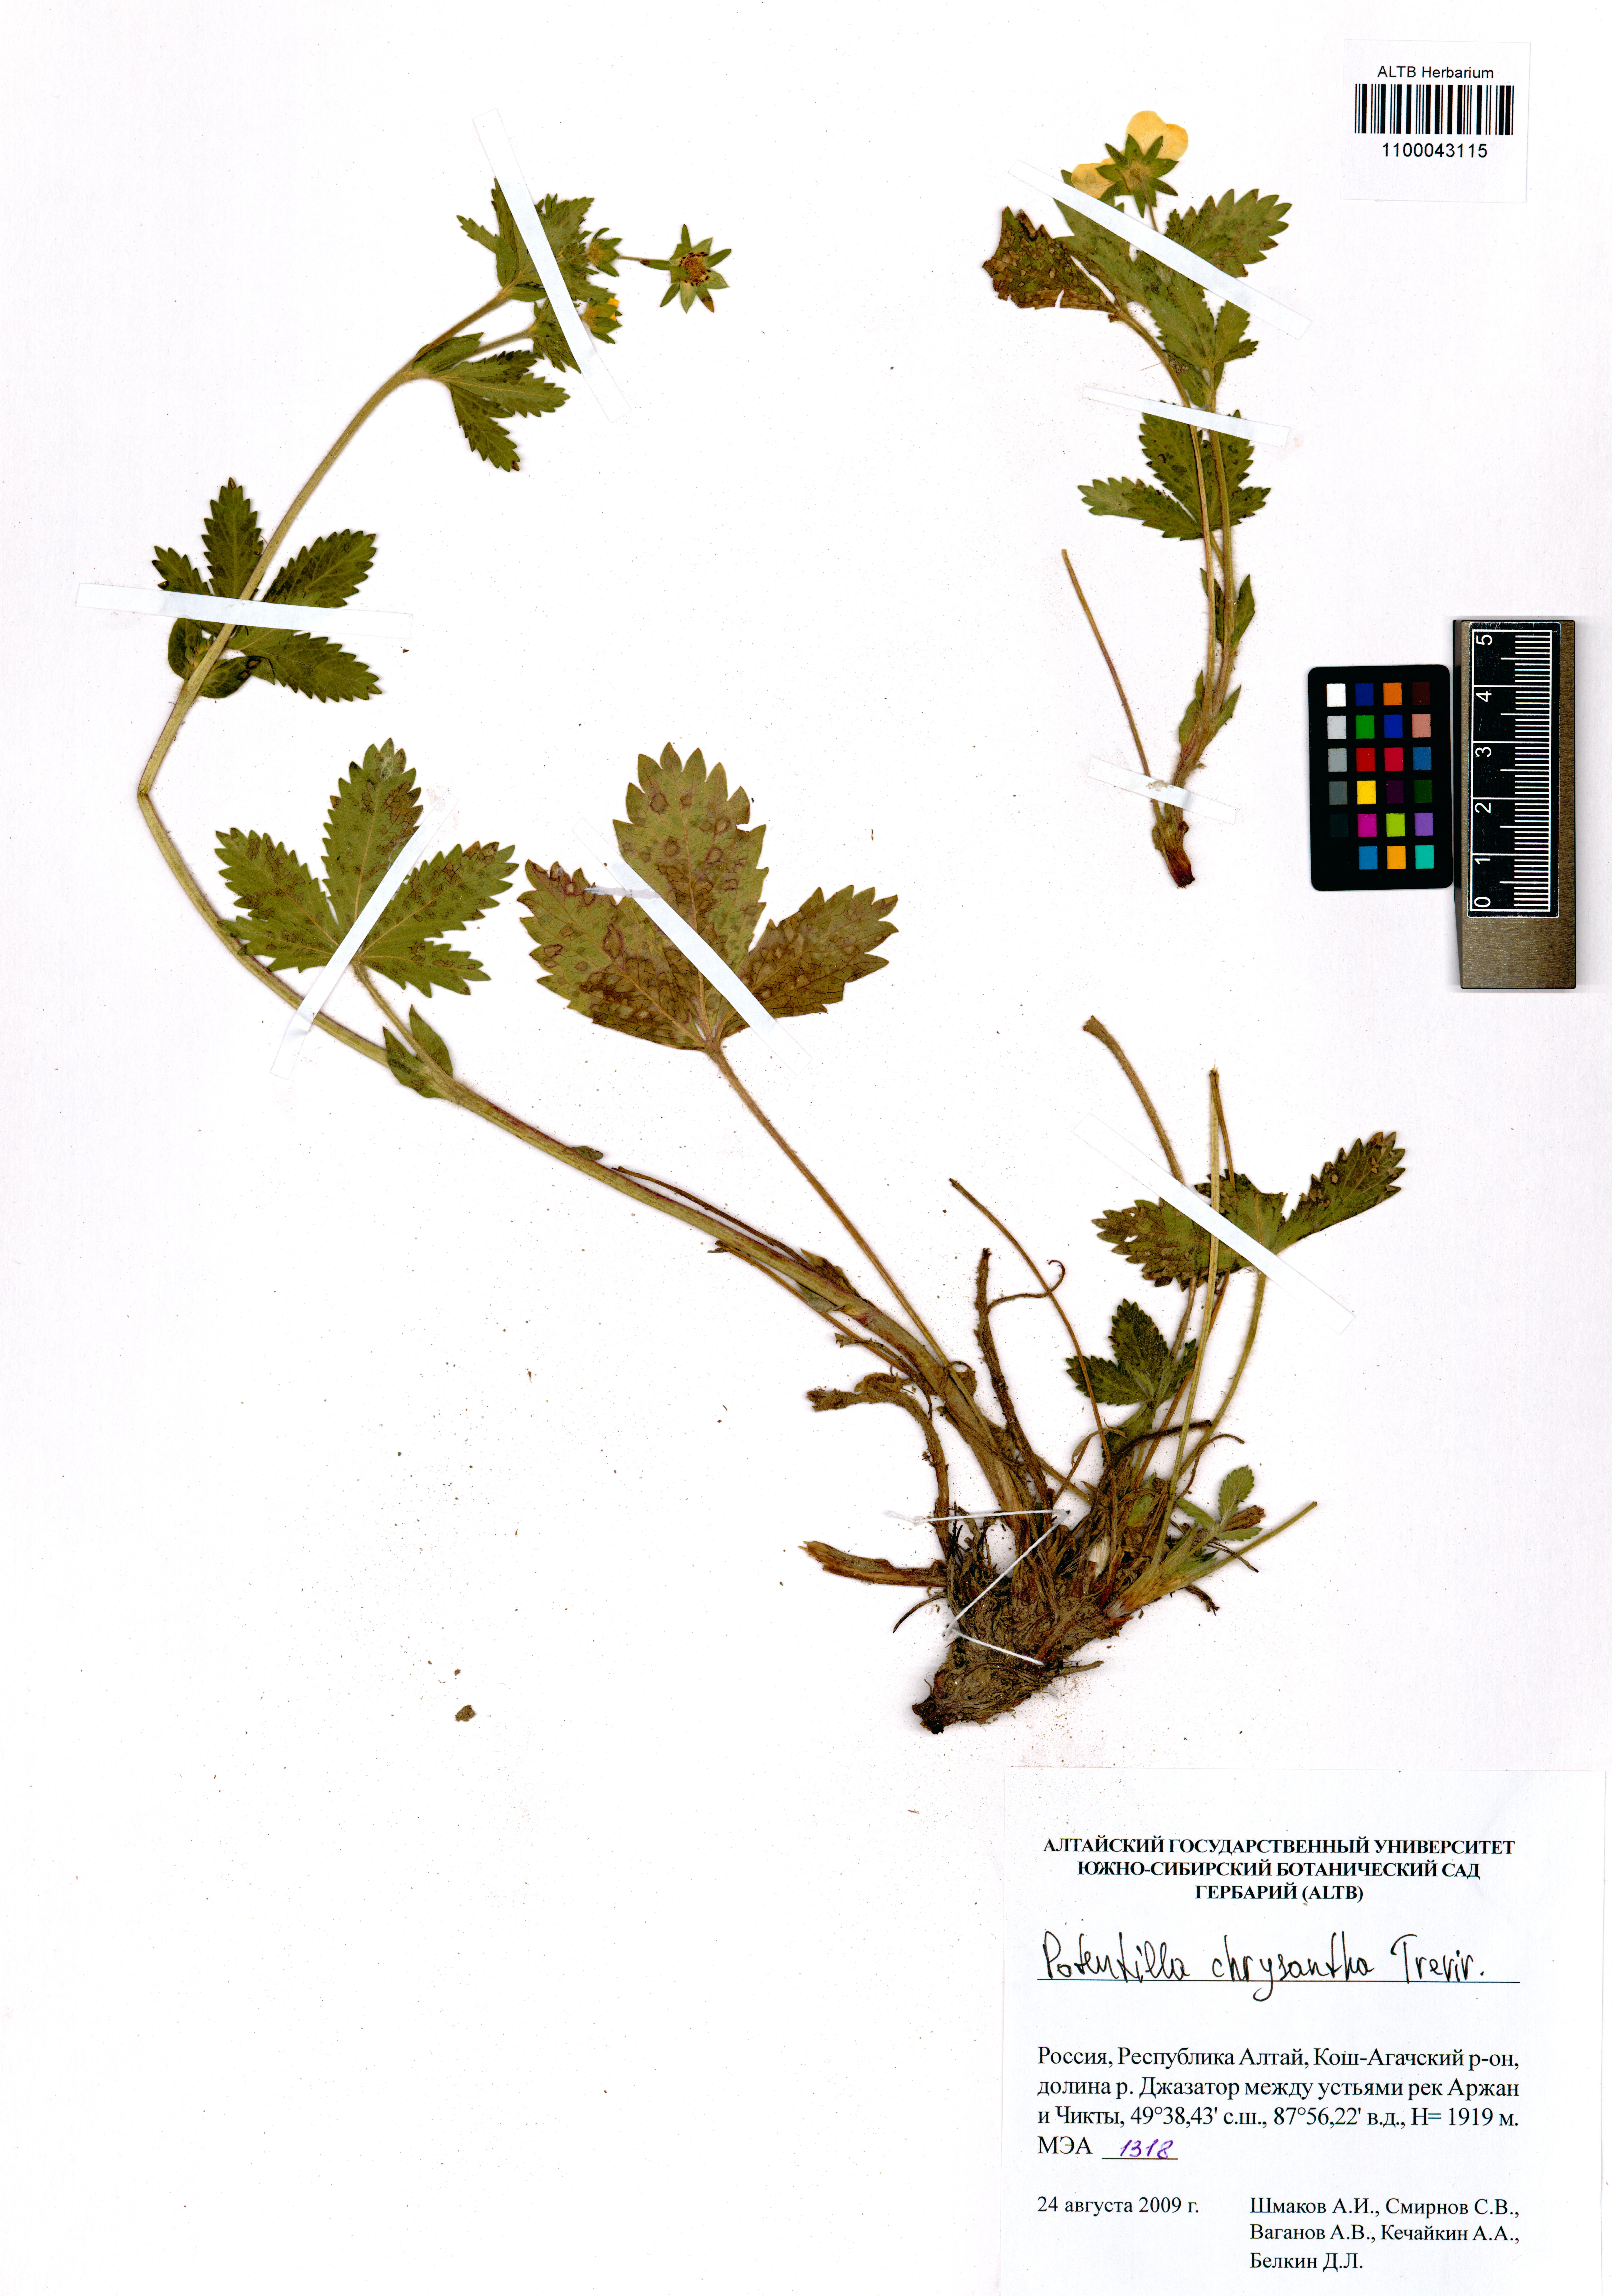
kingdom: Plantae
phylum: Tracheophyta
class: Magnoliopsida
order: Rosales
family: Rosaceae
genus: Potentilla
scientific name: Potentilla chrysantha
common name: Thuringian cinquefoil
